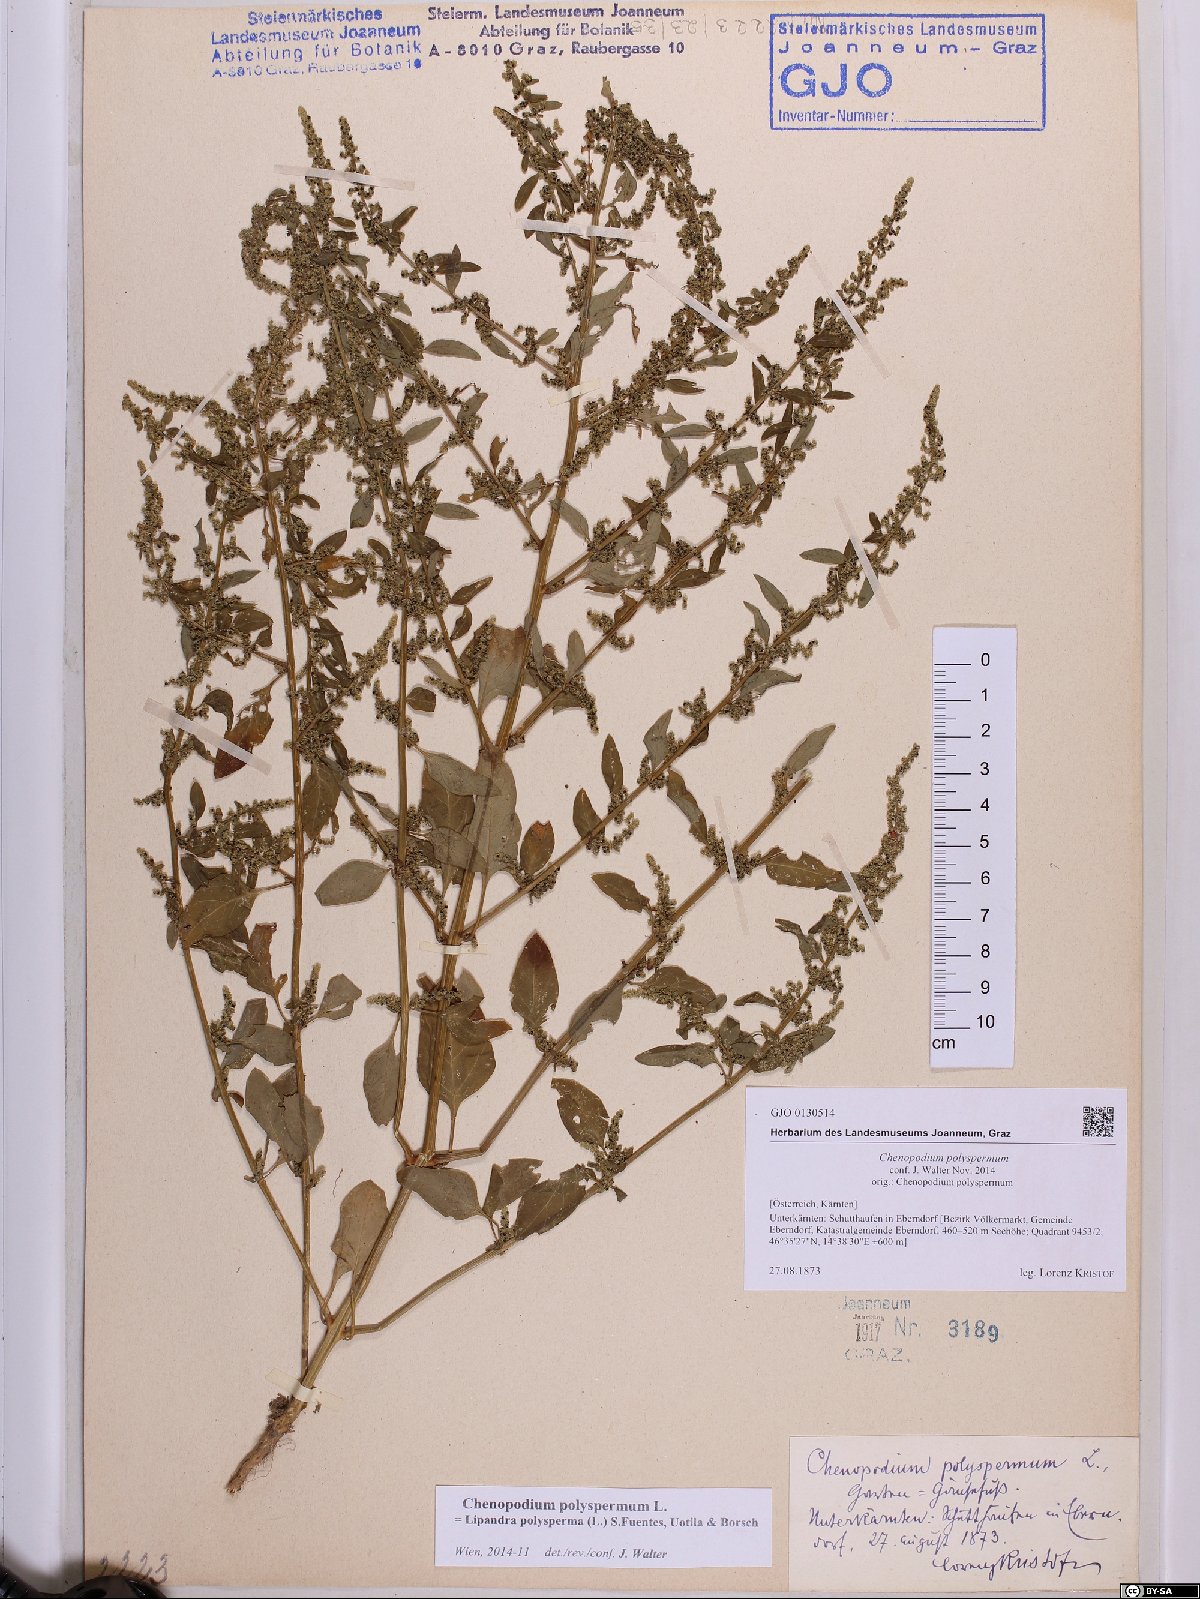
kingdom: Plantae
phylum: Tracheophyta
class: Magnoliopsida
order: Caryophyllales
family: Amaranthaceae
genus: Lipandra
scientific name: Lipandra polysperma
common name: Many-seed goosefoot
